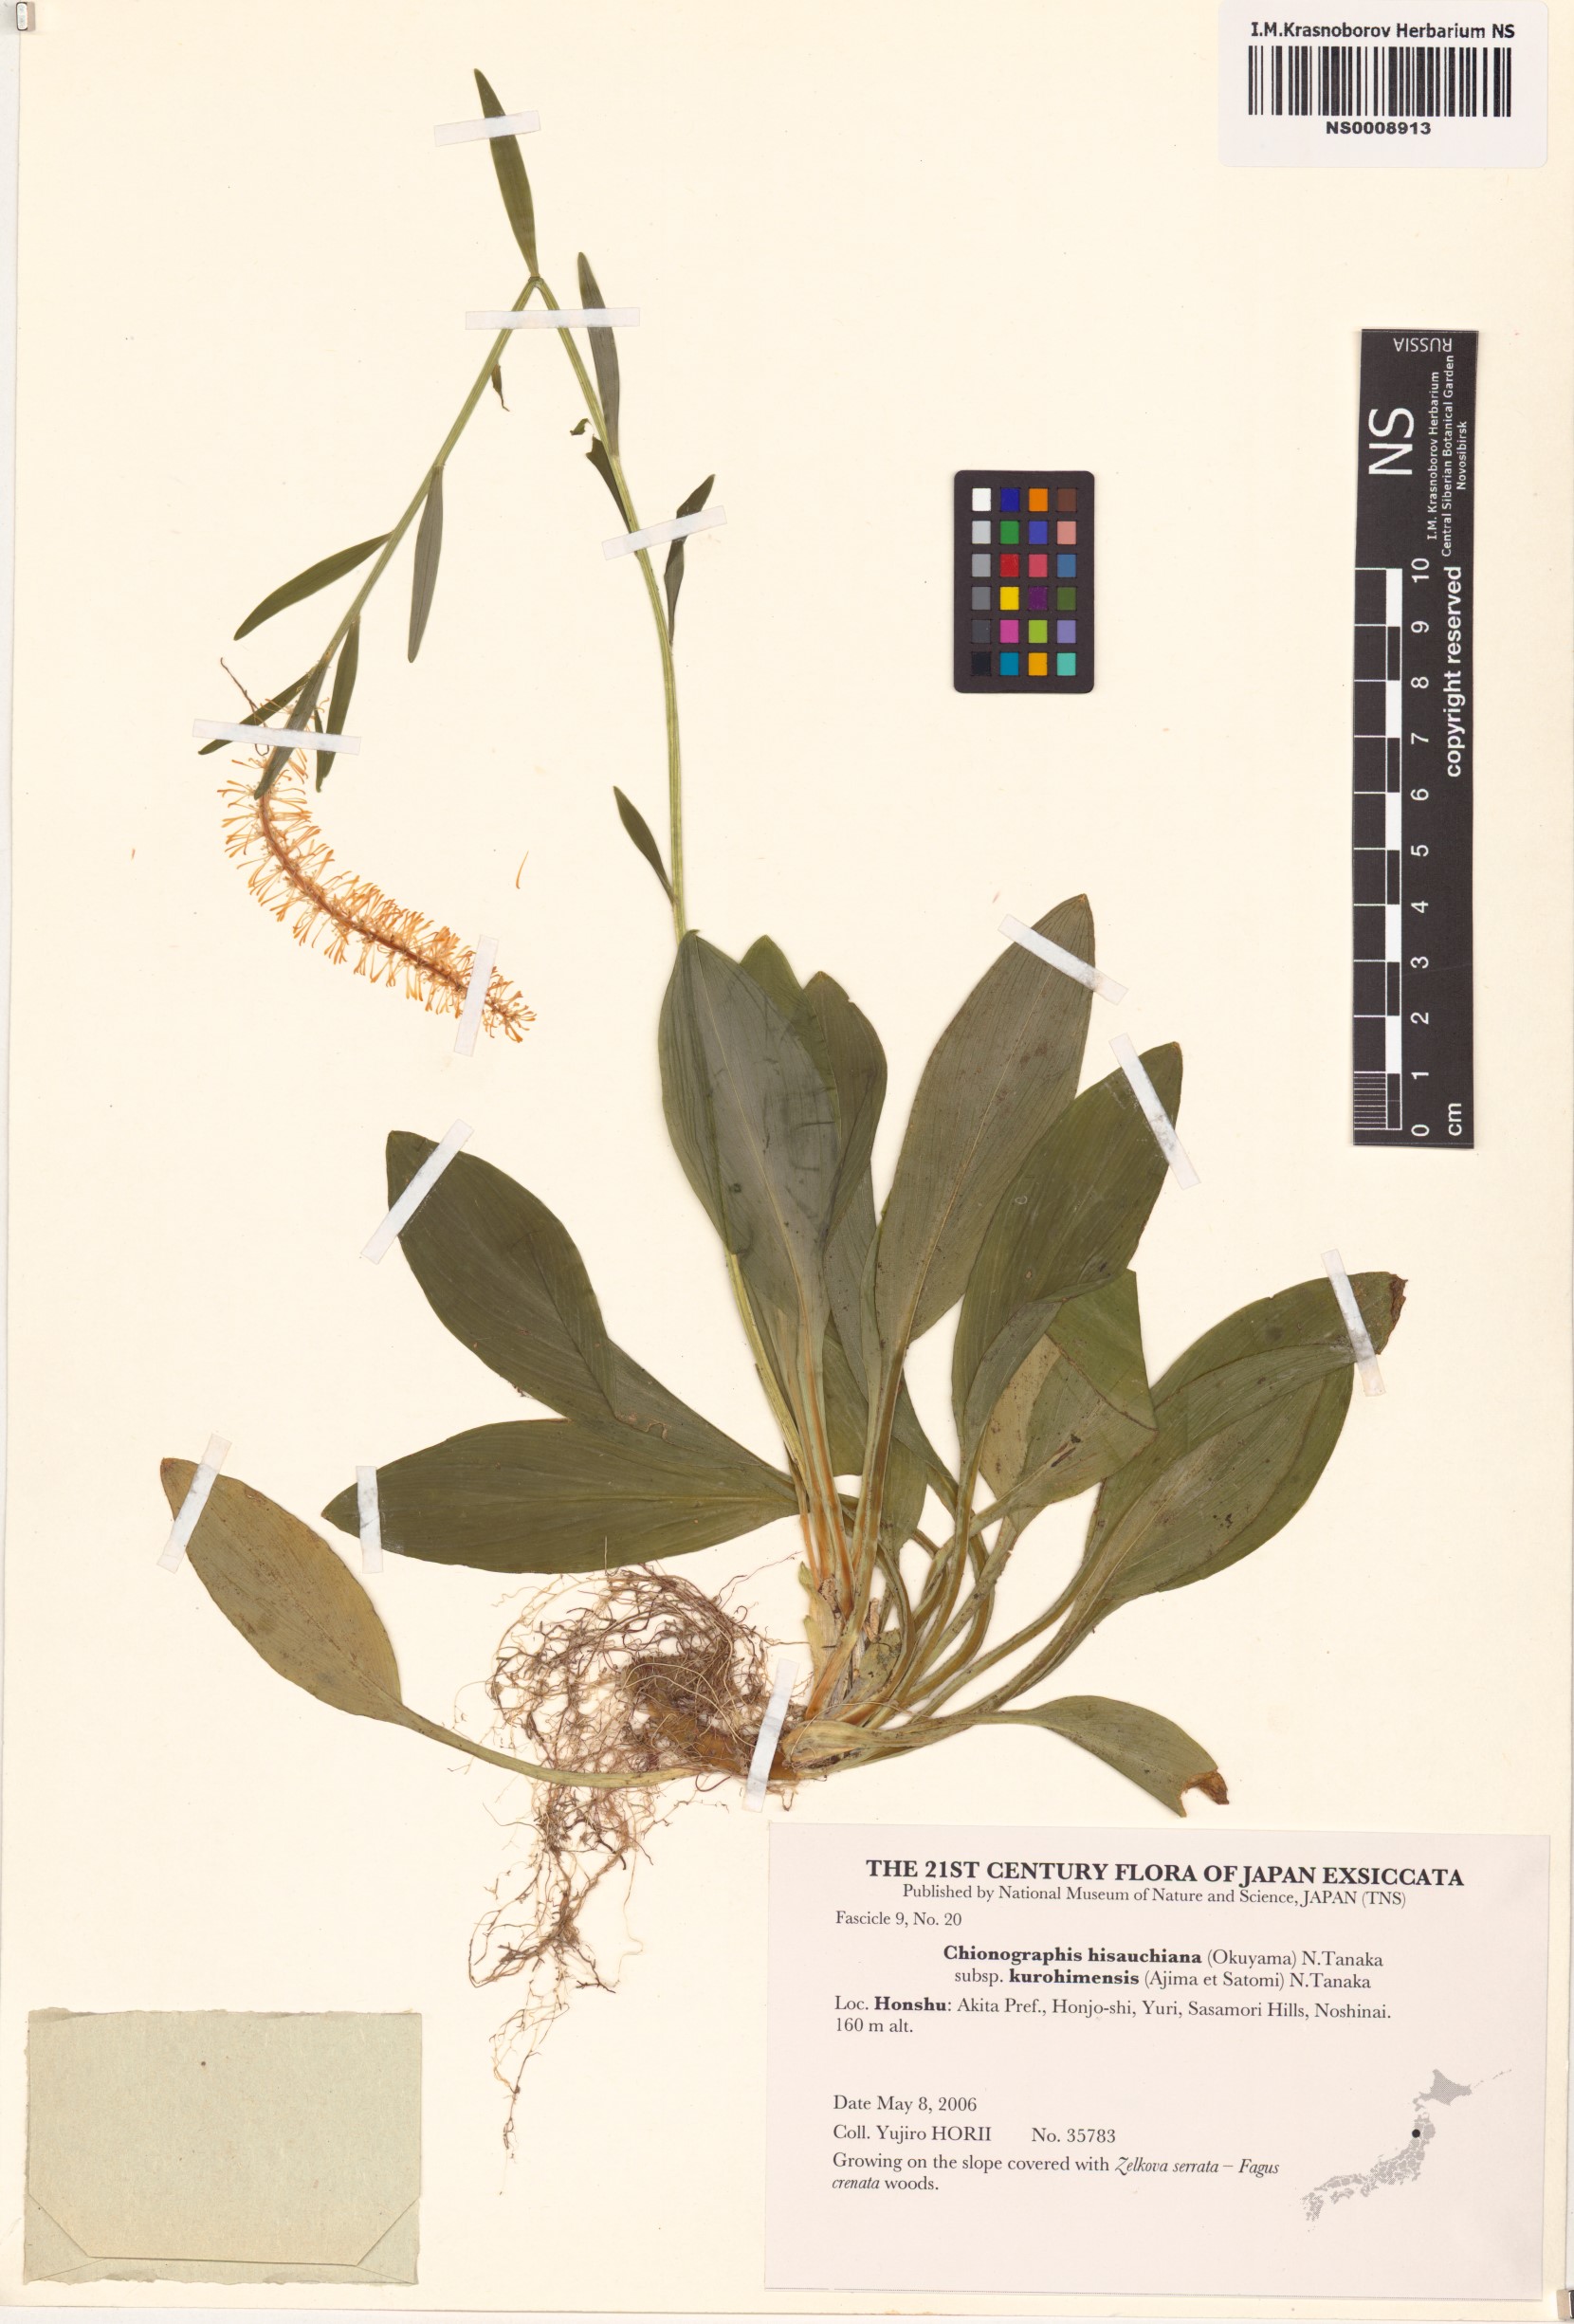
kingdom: Plantae
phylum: Tracheophyta
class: Liliopsida
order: Liliales
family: Melanthiaceae
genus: Chamaelirium
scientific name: Chamaelirium hisauchianum
